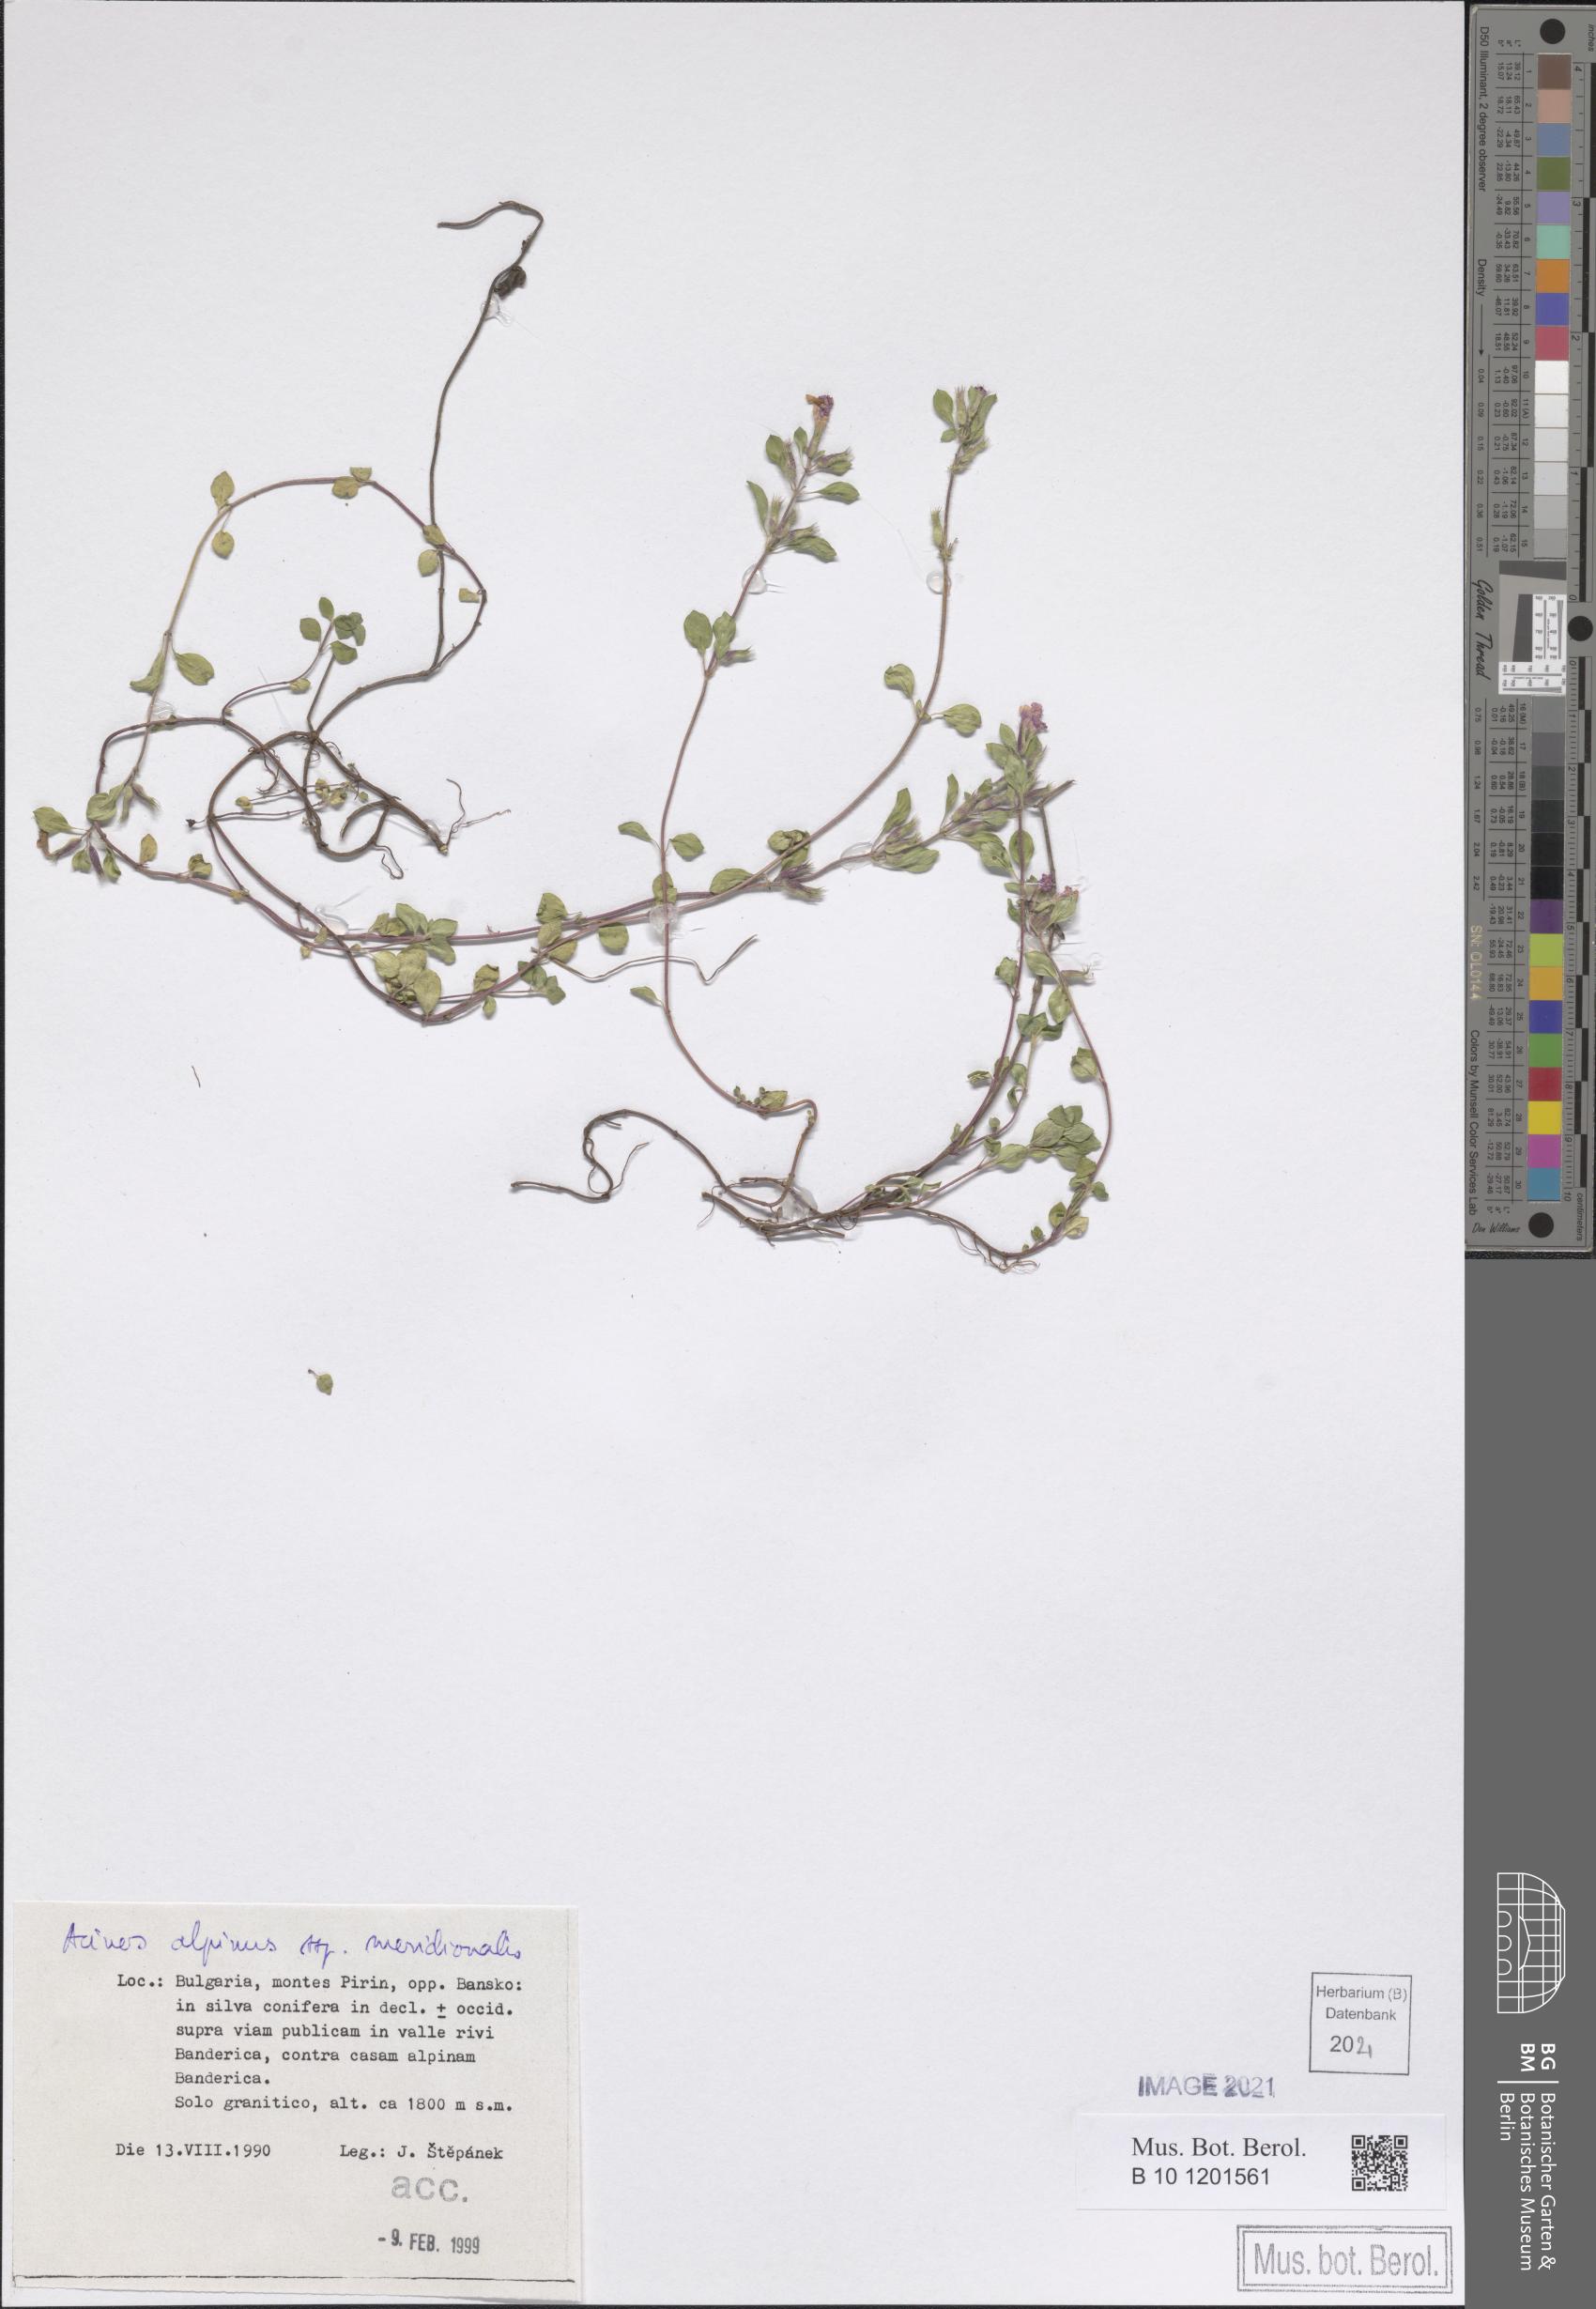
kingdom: Plantae
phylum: Tracheophyta
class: Magnoliopsida
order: Lamiales
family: Lamiaceae
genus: Clinopodium
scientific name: Clinopodium alpinum
